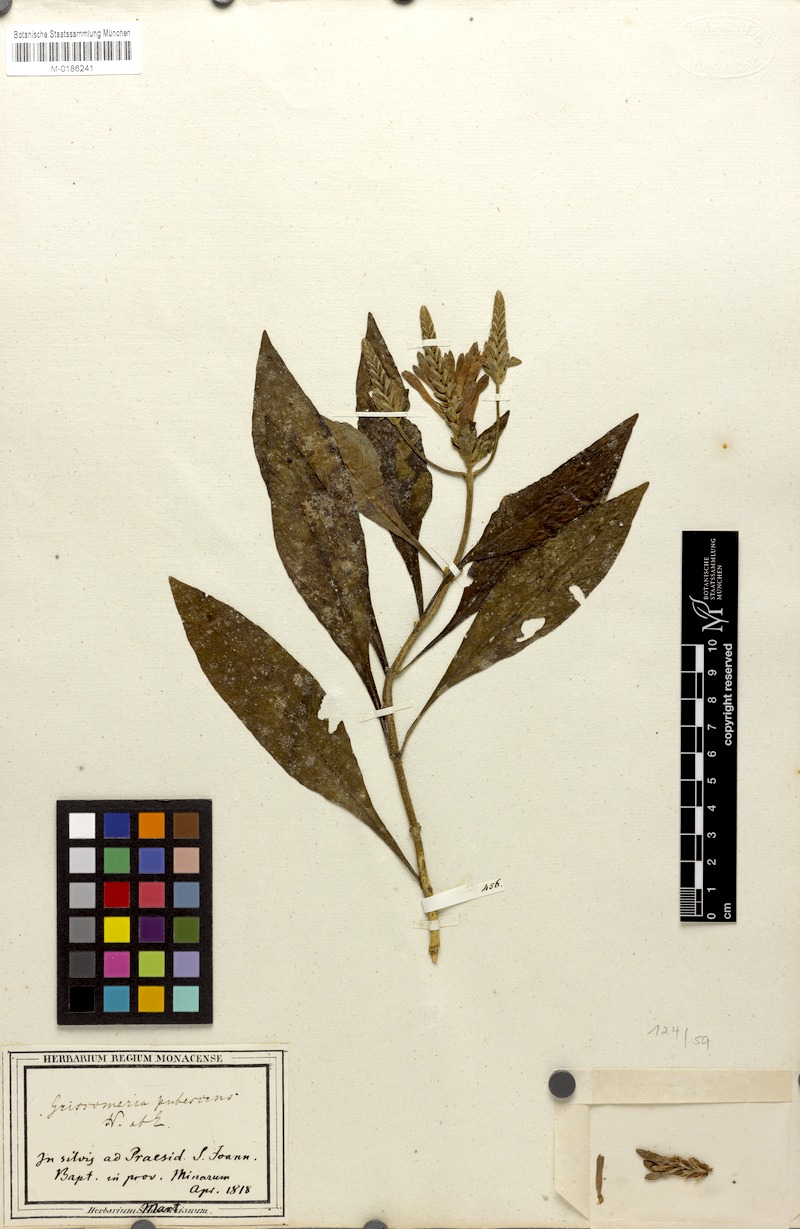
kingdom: Plantae
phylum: Tracheophyta
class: Magnoliopsida
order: Lamiales
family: Acanthaceae
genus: Aphelandra
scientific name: Aphelandra longiflora
